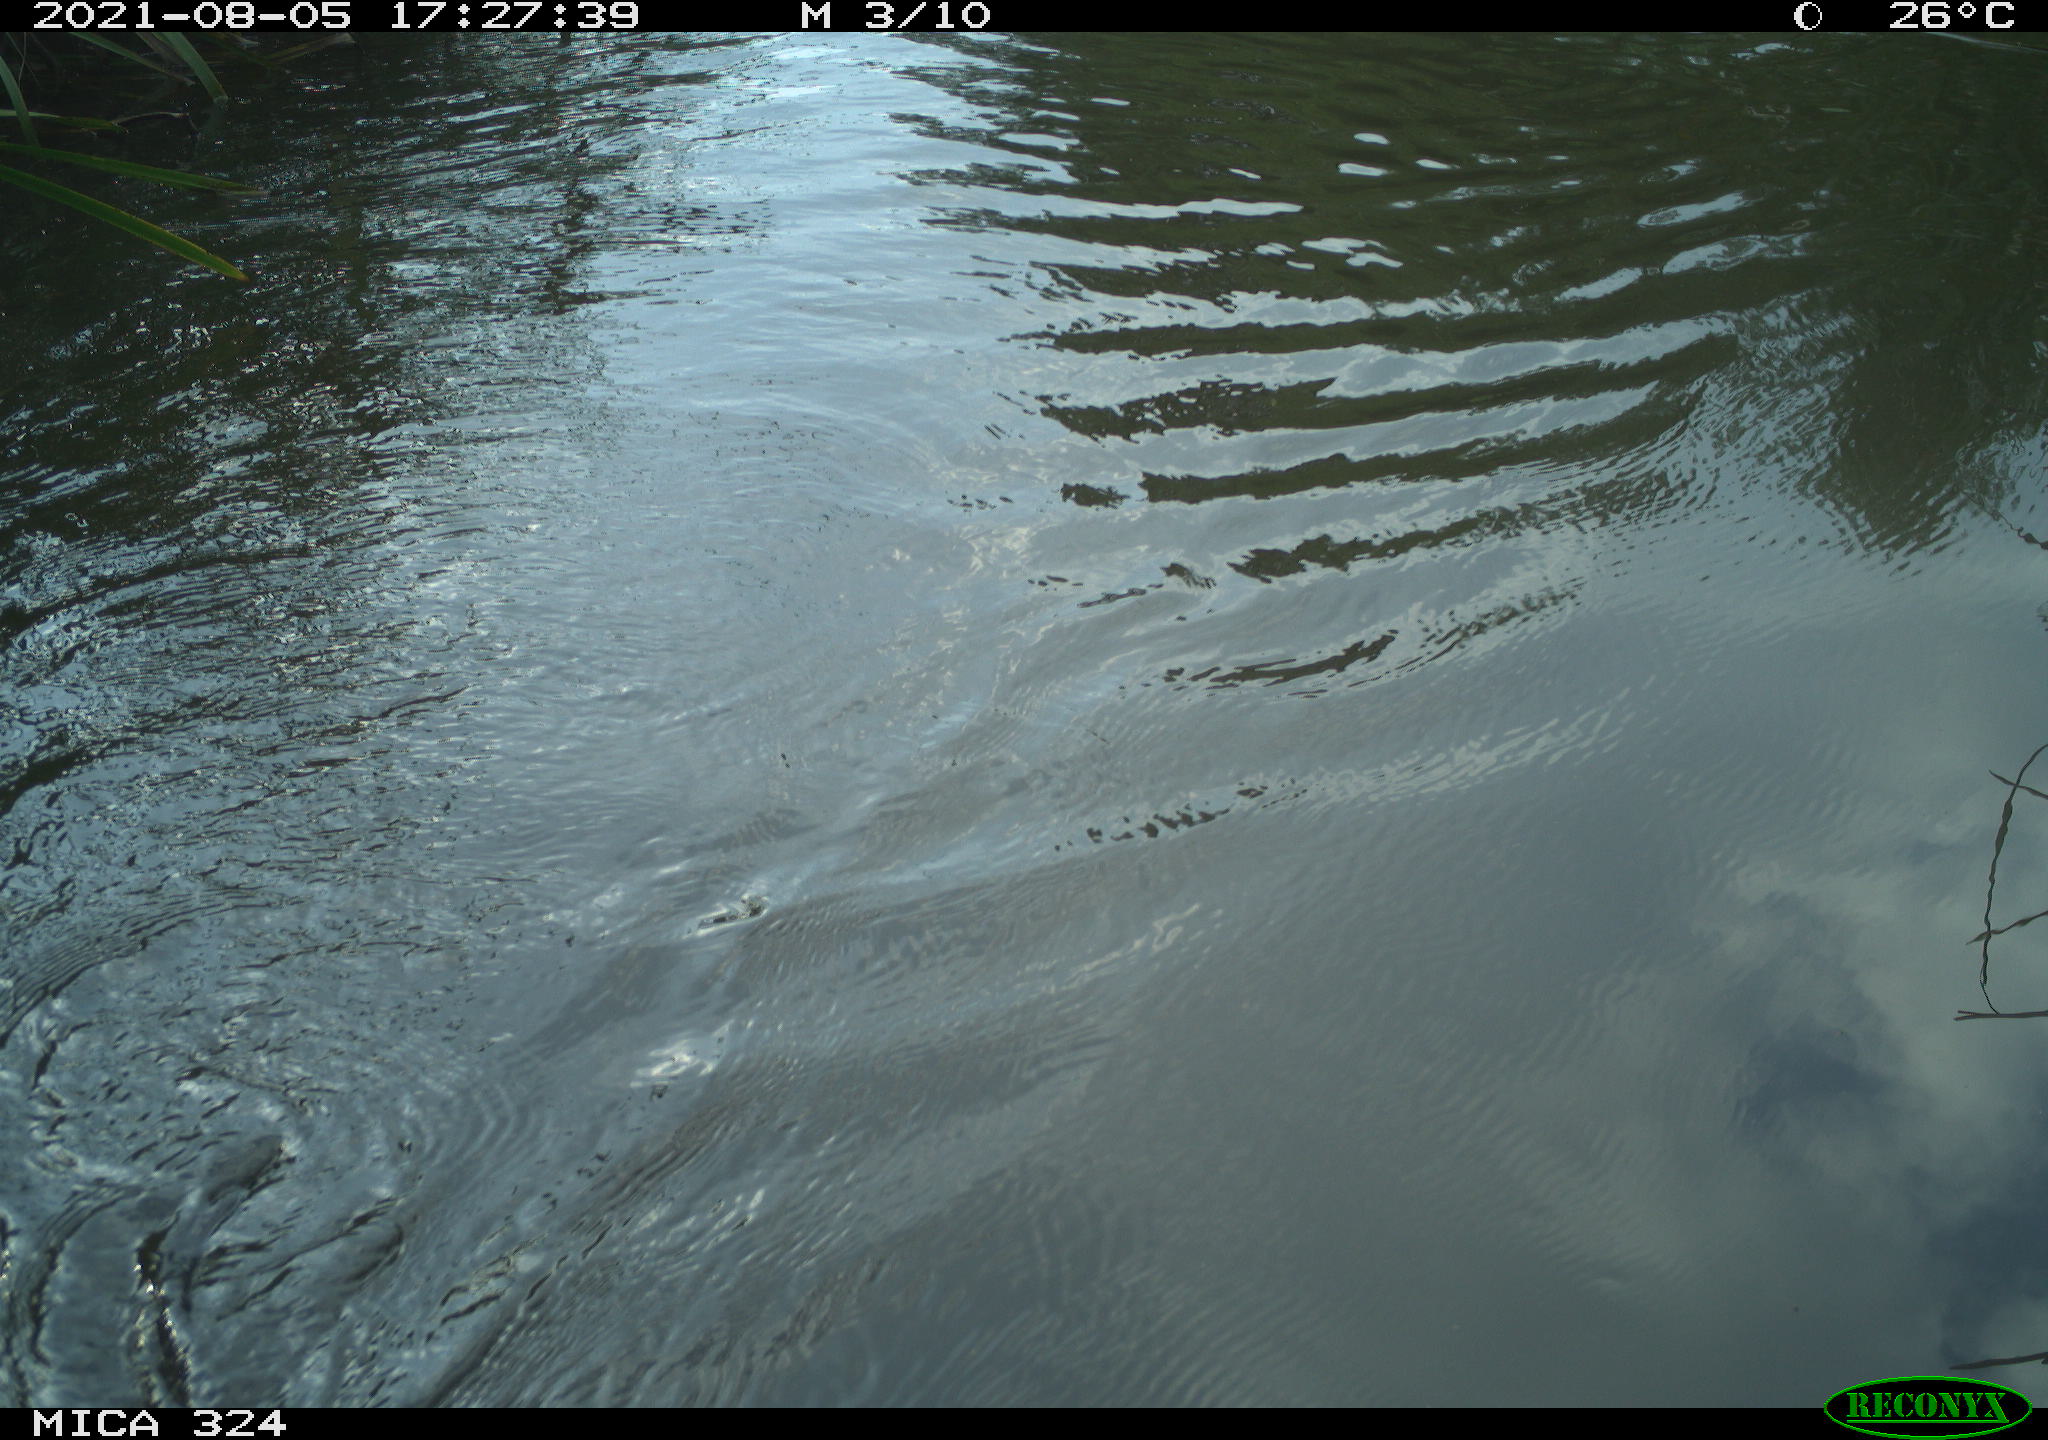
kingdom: Animalia
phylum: Chordata
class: Mammalia
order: Rodentia
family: Cricetidae
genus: Ondatra
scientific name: Ondatra zibethicus
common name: Muskrat
